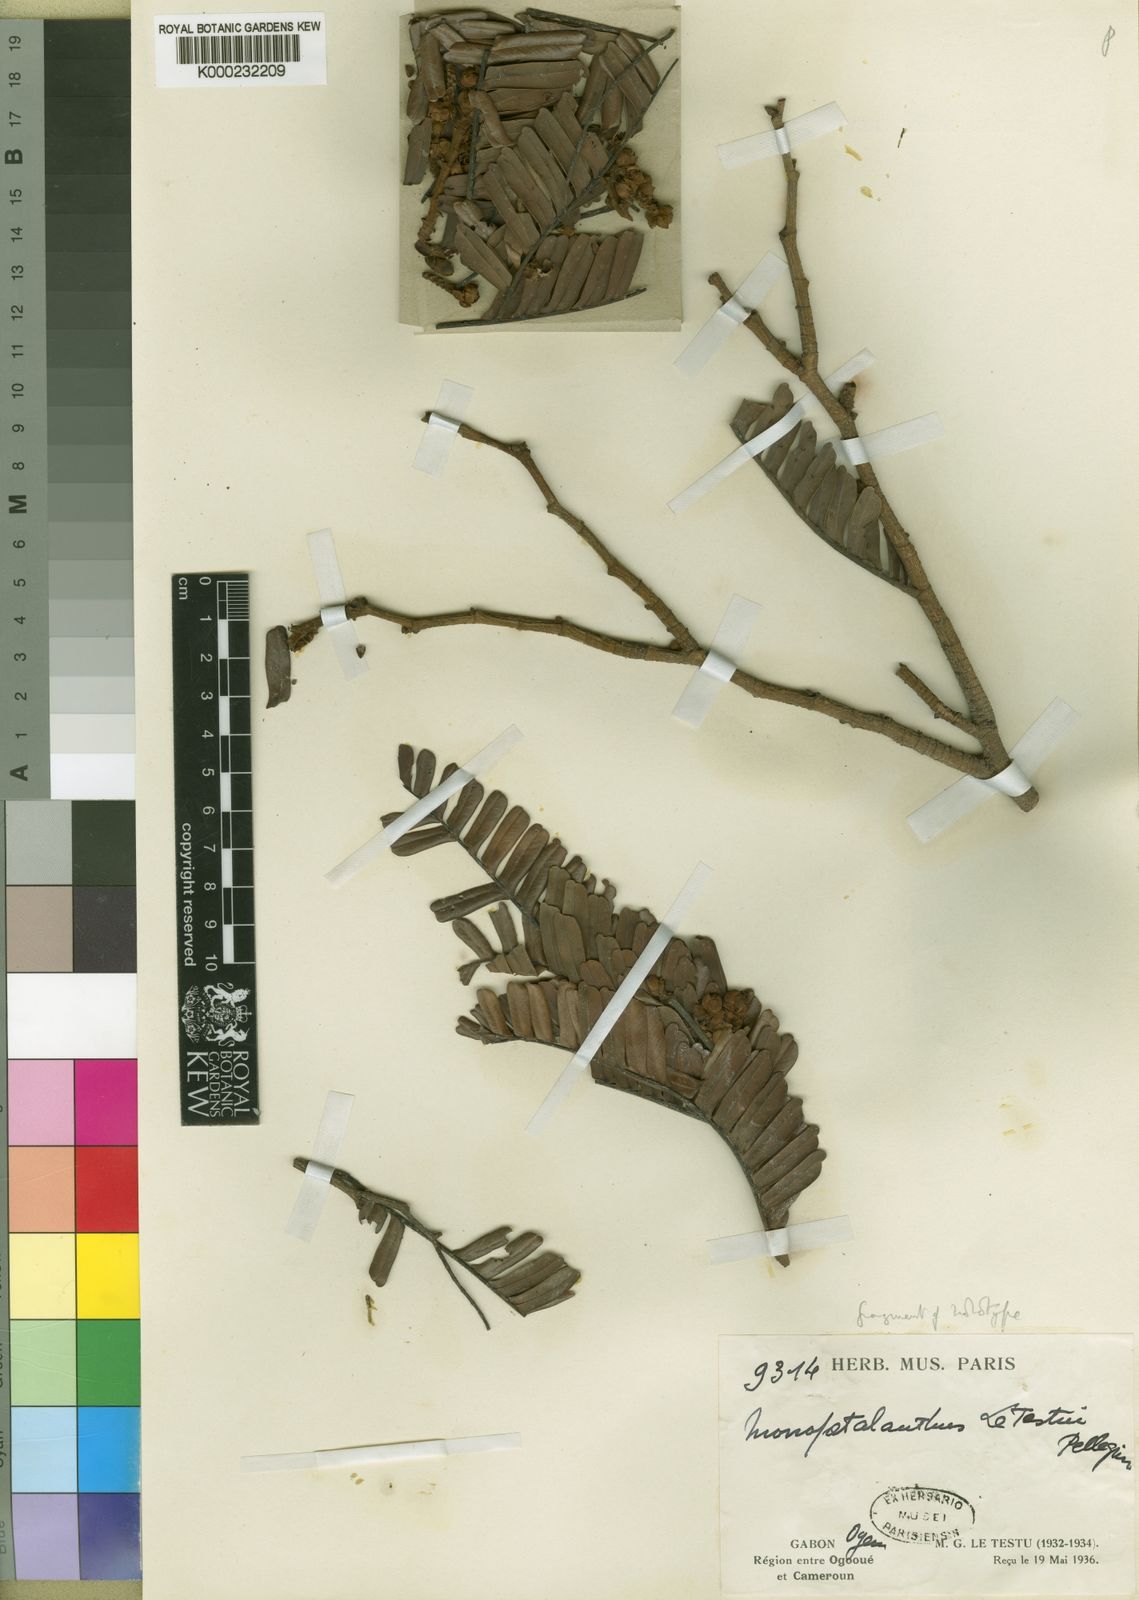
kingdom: Plantae
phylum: Tracheophyta
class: Magnoliopsida
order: Fabales
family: Fabaceae
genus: Bikinia
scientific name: Bikinia letestui
